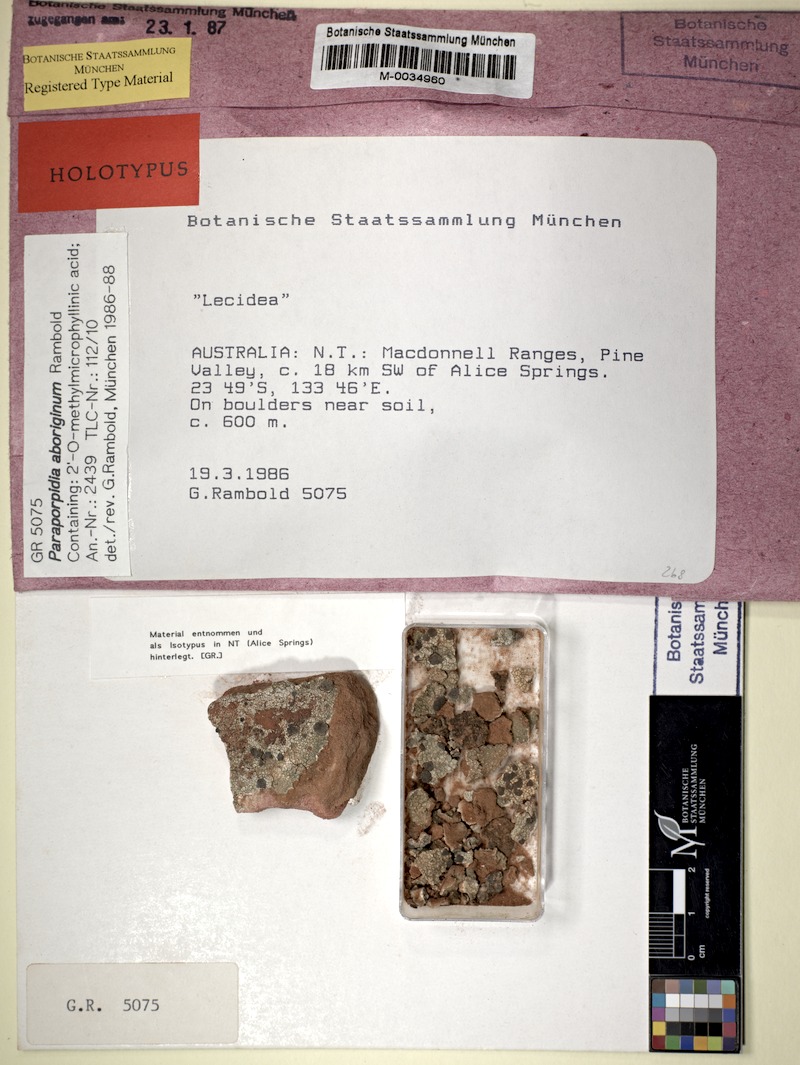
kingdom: Fungi
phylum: Ascomycota
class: Lecanoromycetes
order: Lecideales
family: Lecideaceae
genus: Paraporpidia
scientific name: Paraporpidia aboriginum
